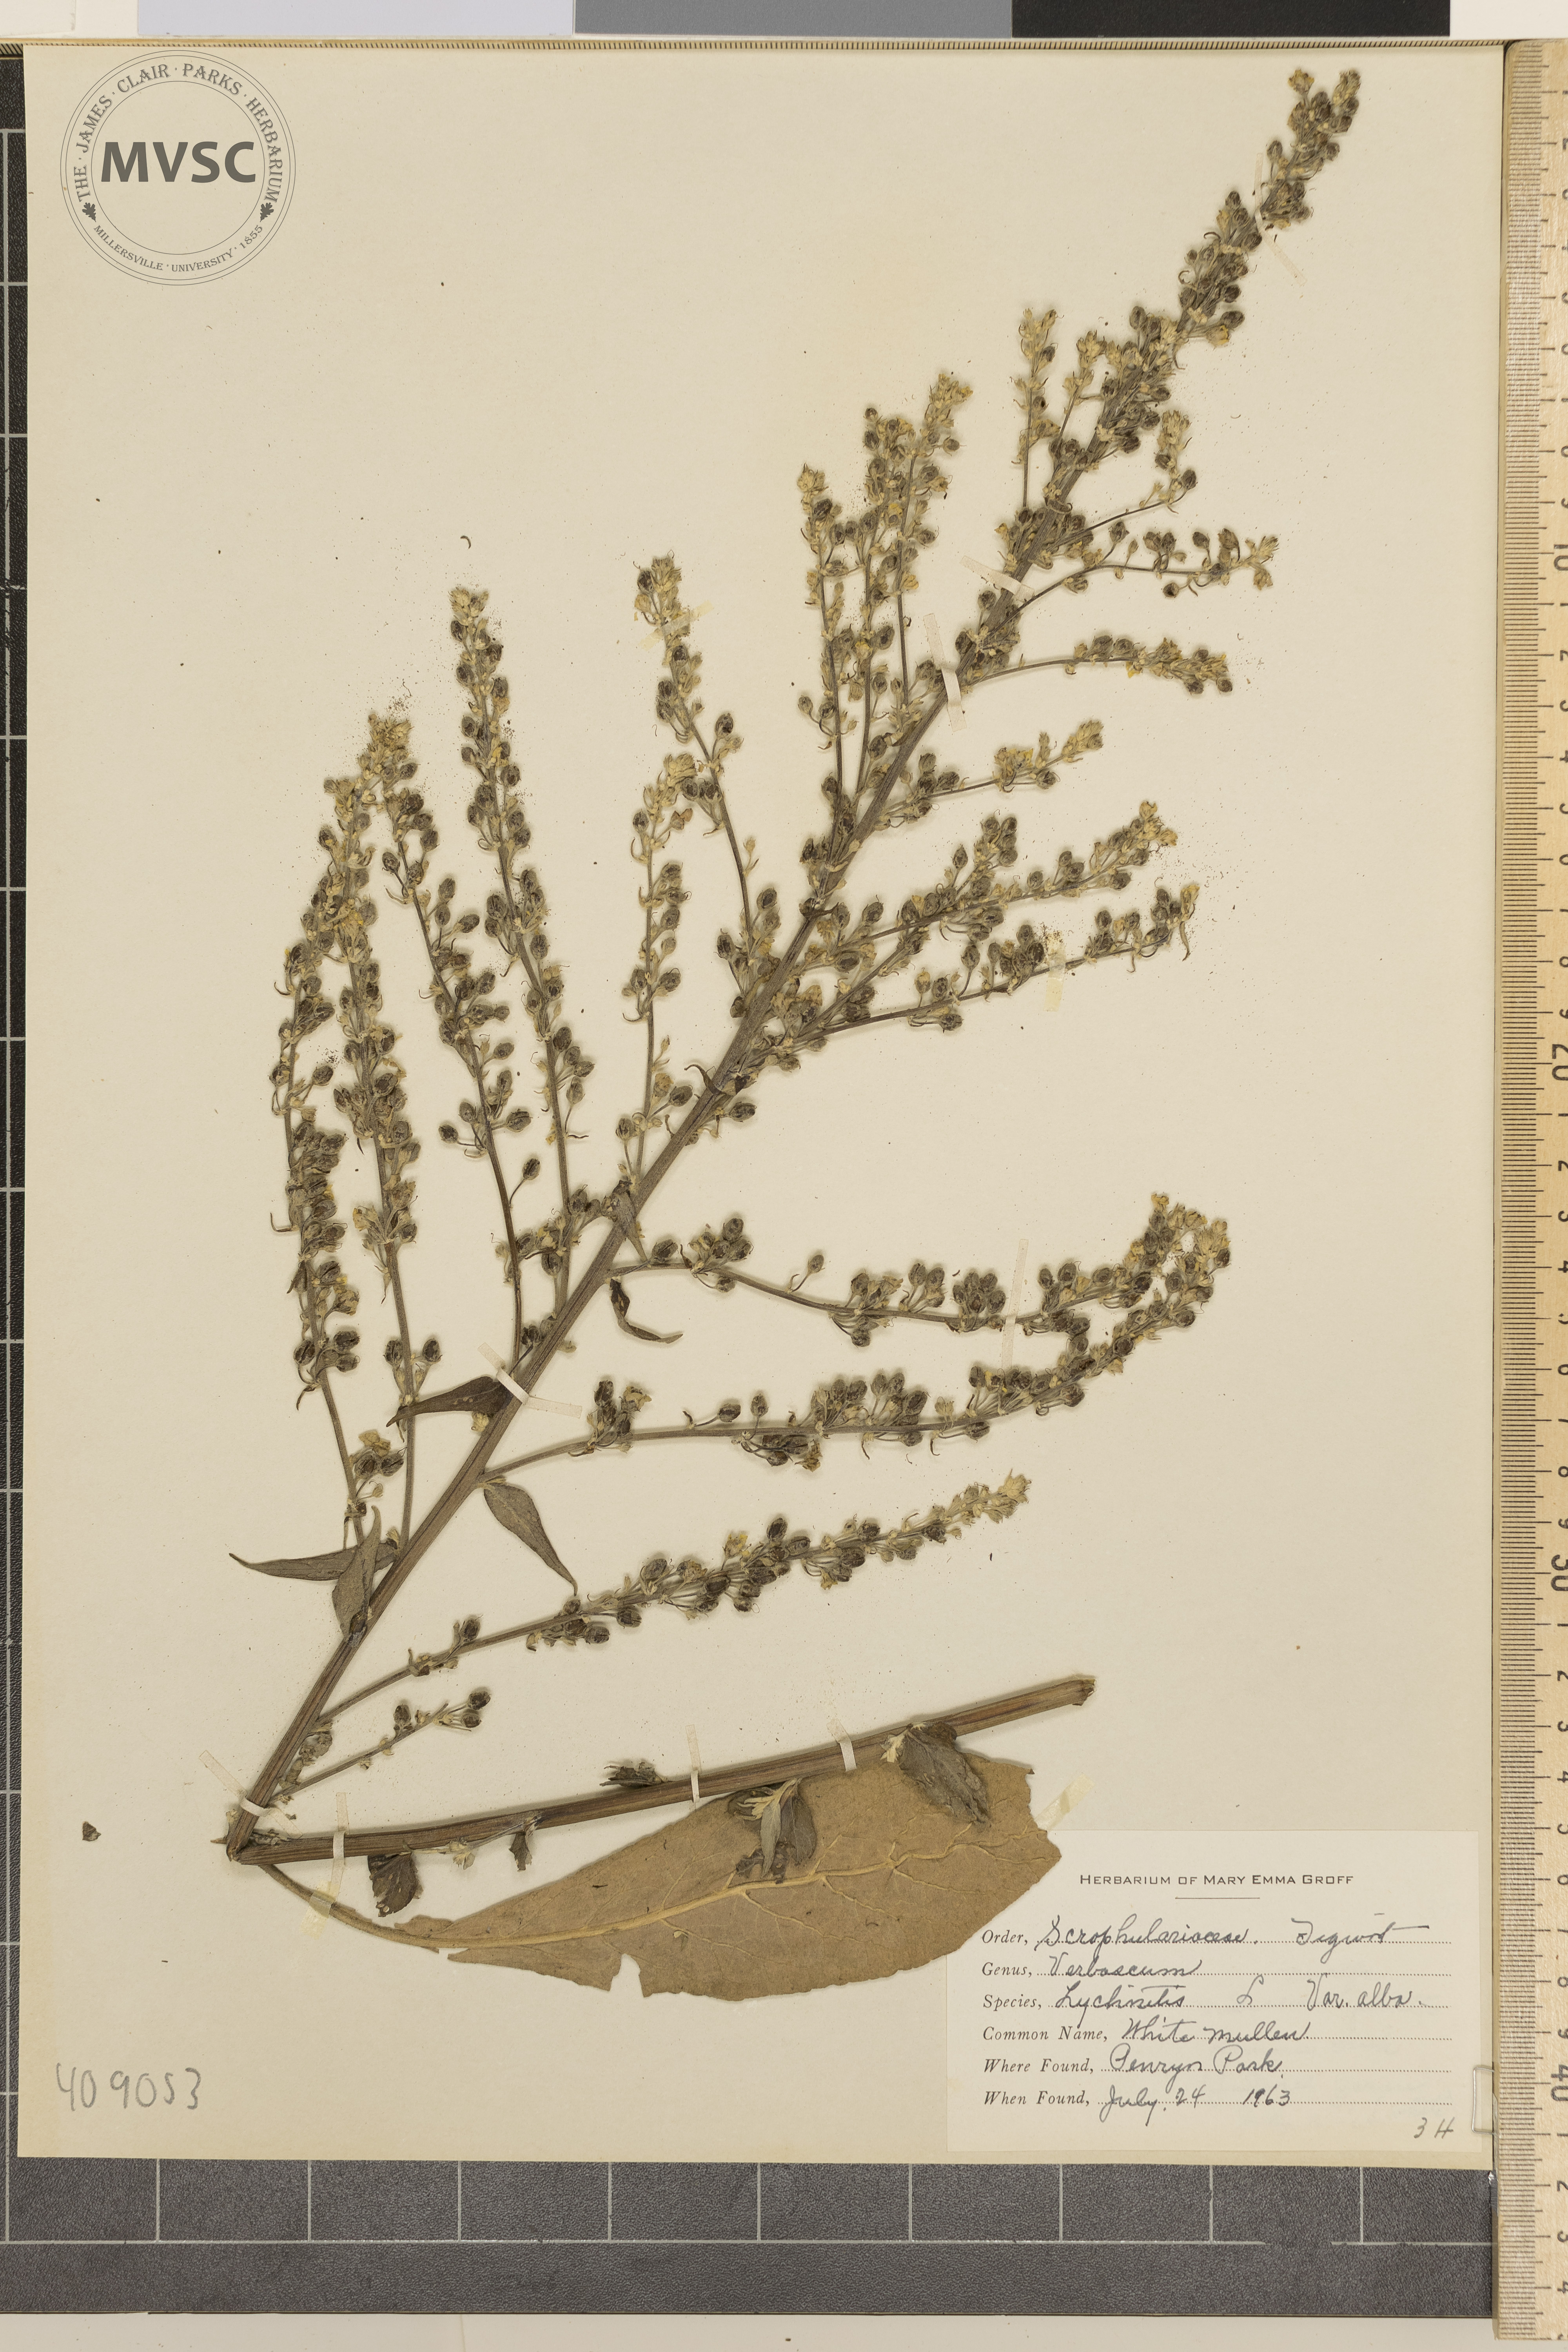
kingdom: Plantae
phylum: Tracheophyta
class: Magnoliopsida
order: Lamiales
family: Scrophulariaceae
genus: Verbascum
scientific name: Verbascum lychnitis
